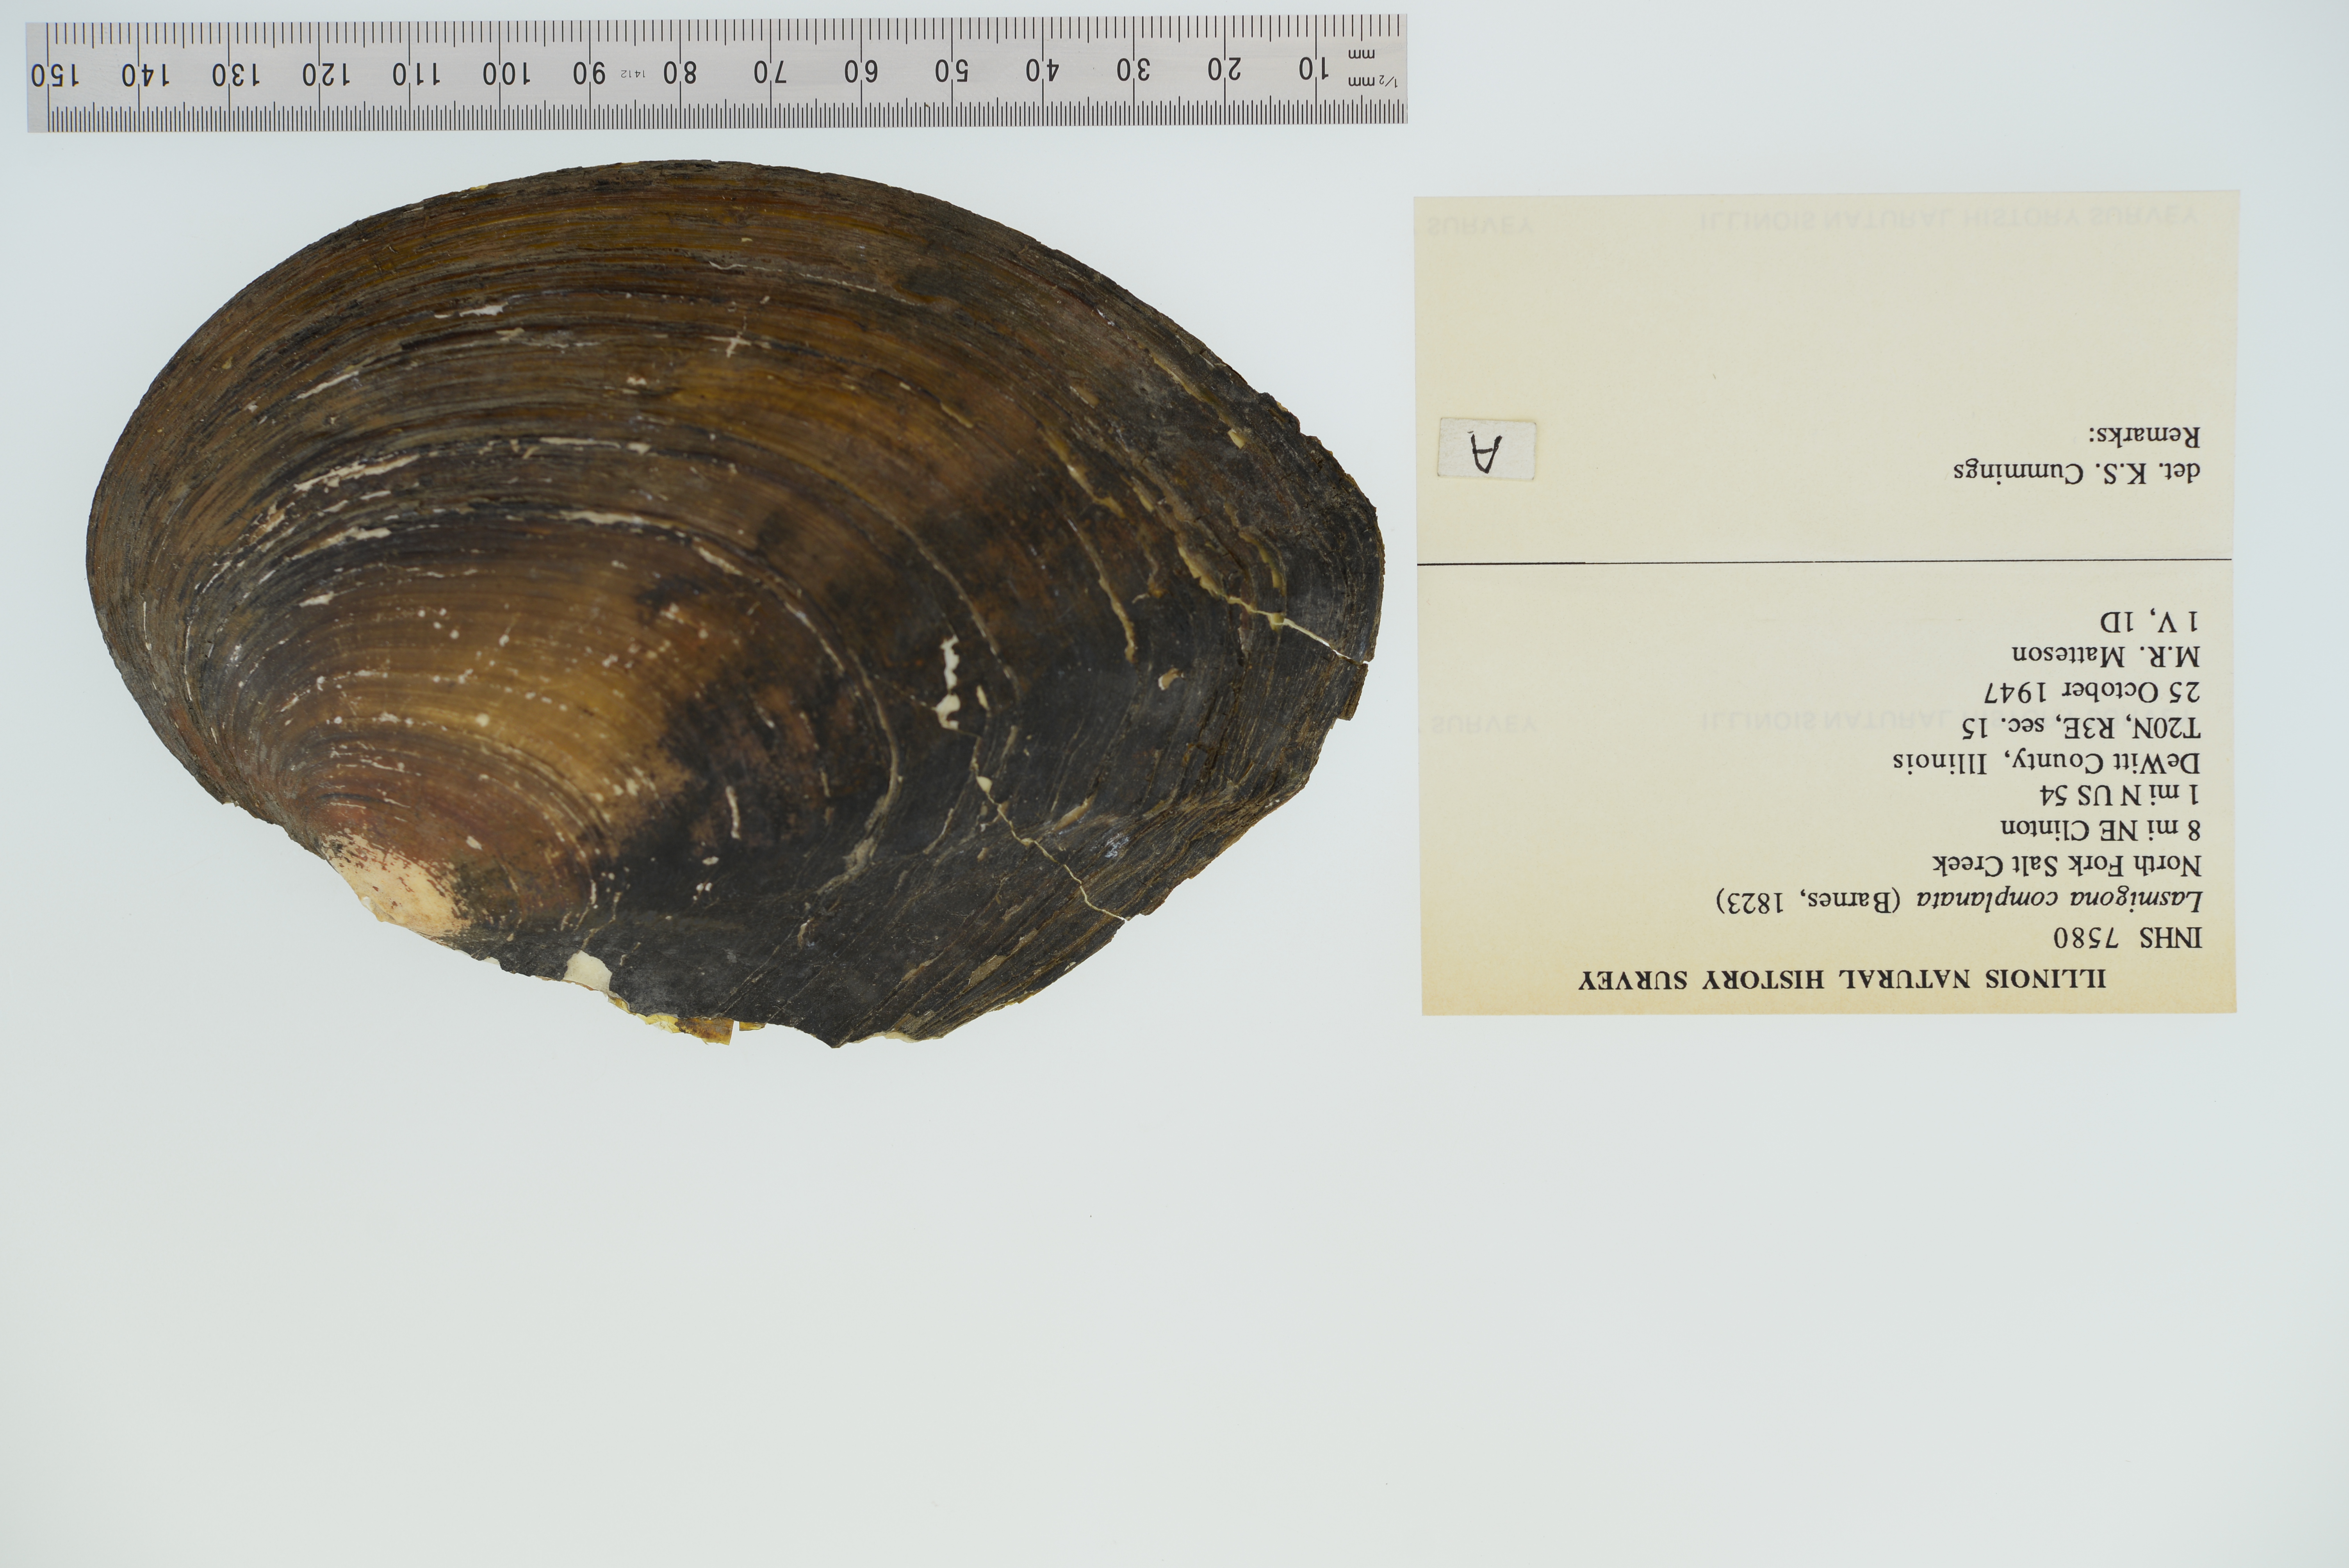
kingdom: Animalia
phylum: Mollusca
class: Bivalvia
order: Unionida
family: Unionidae
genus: Lasmigona
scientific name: Lasmigona complanata
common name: White heelsplitter
